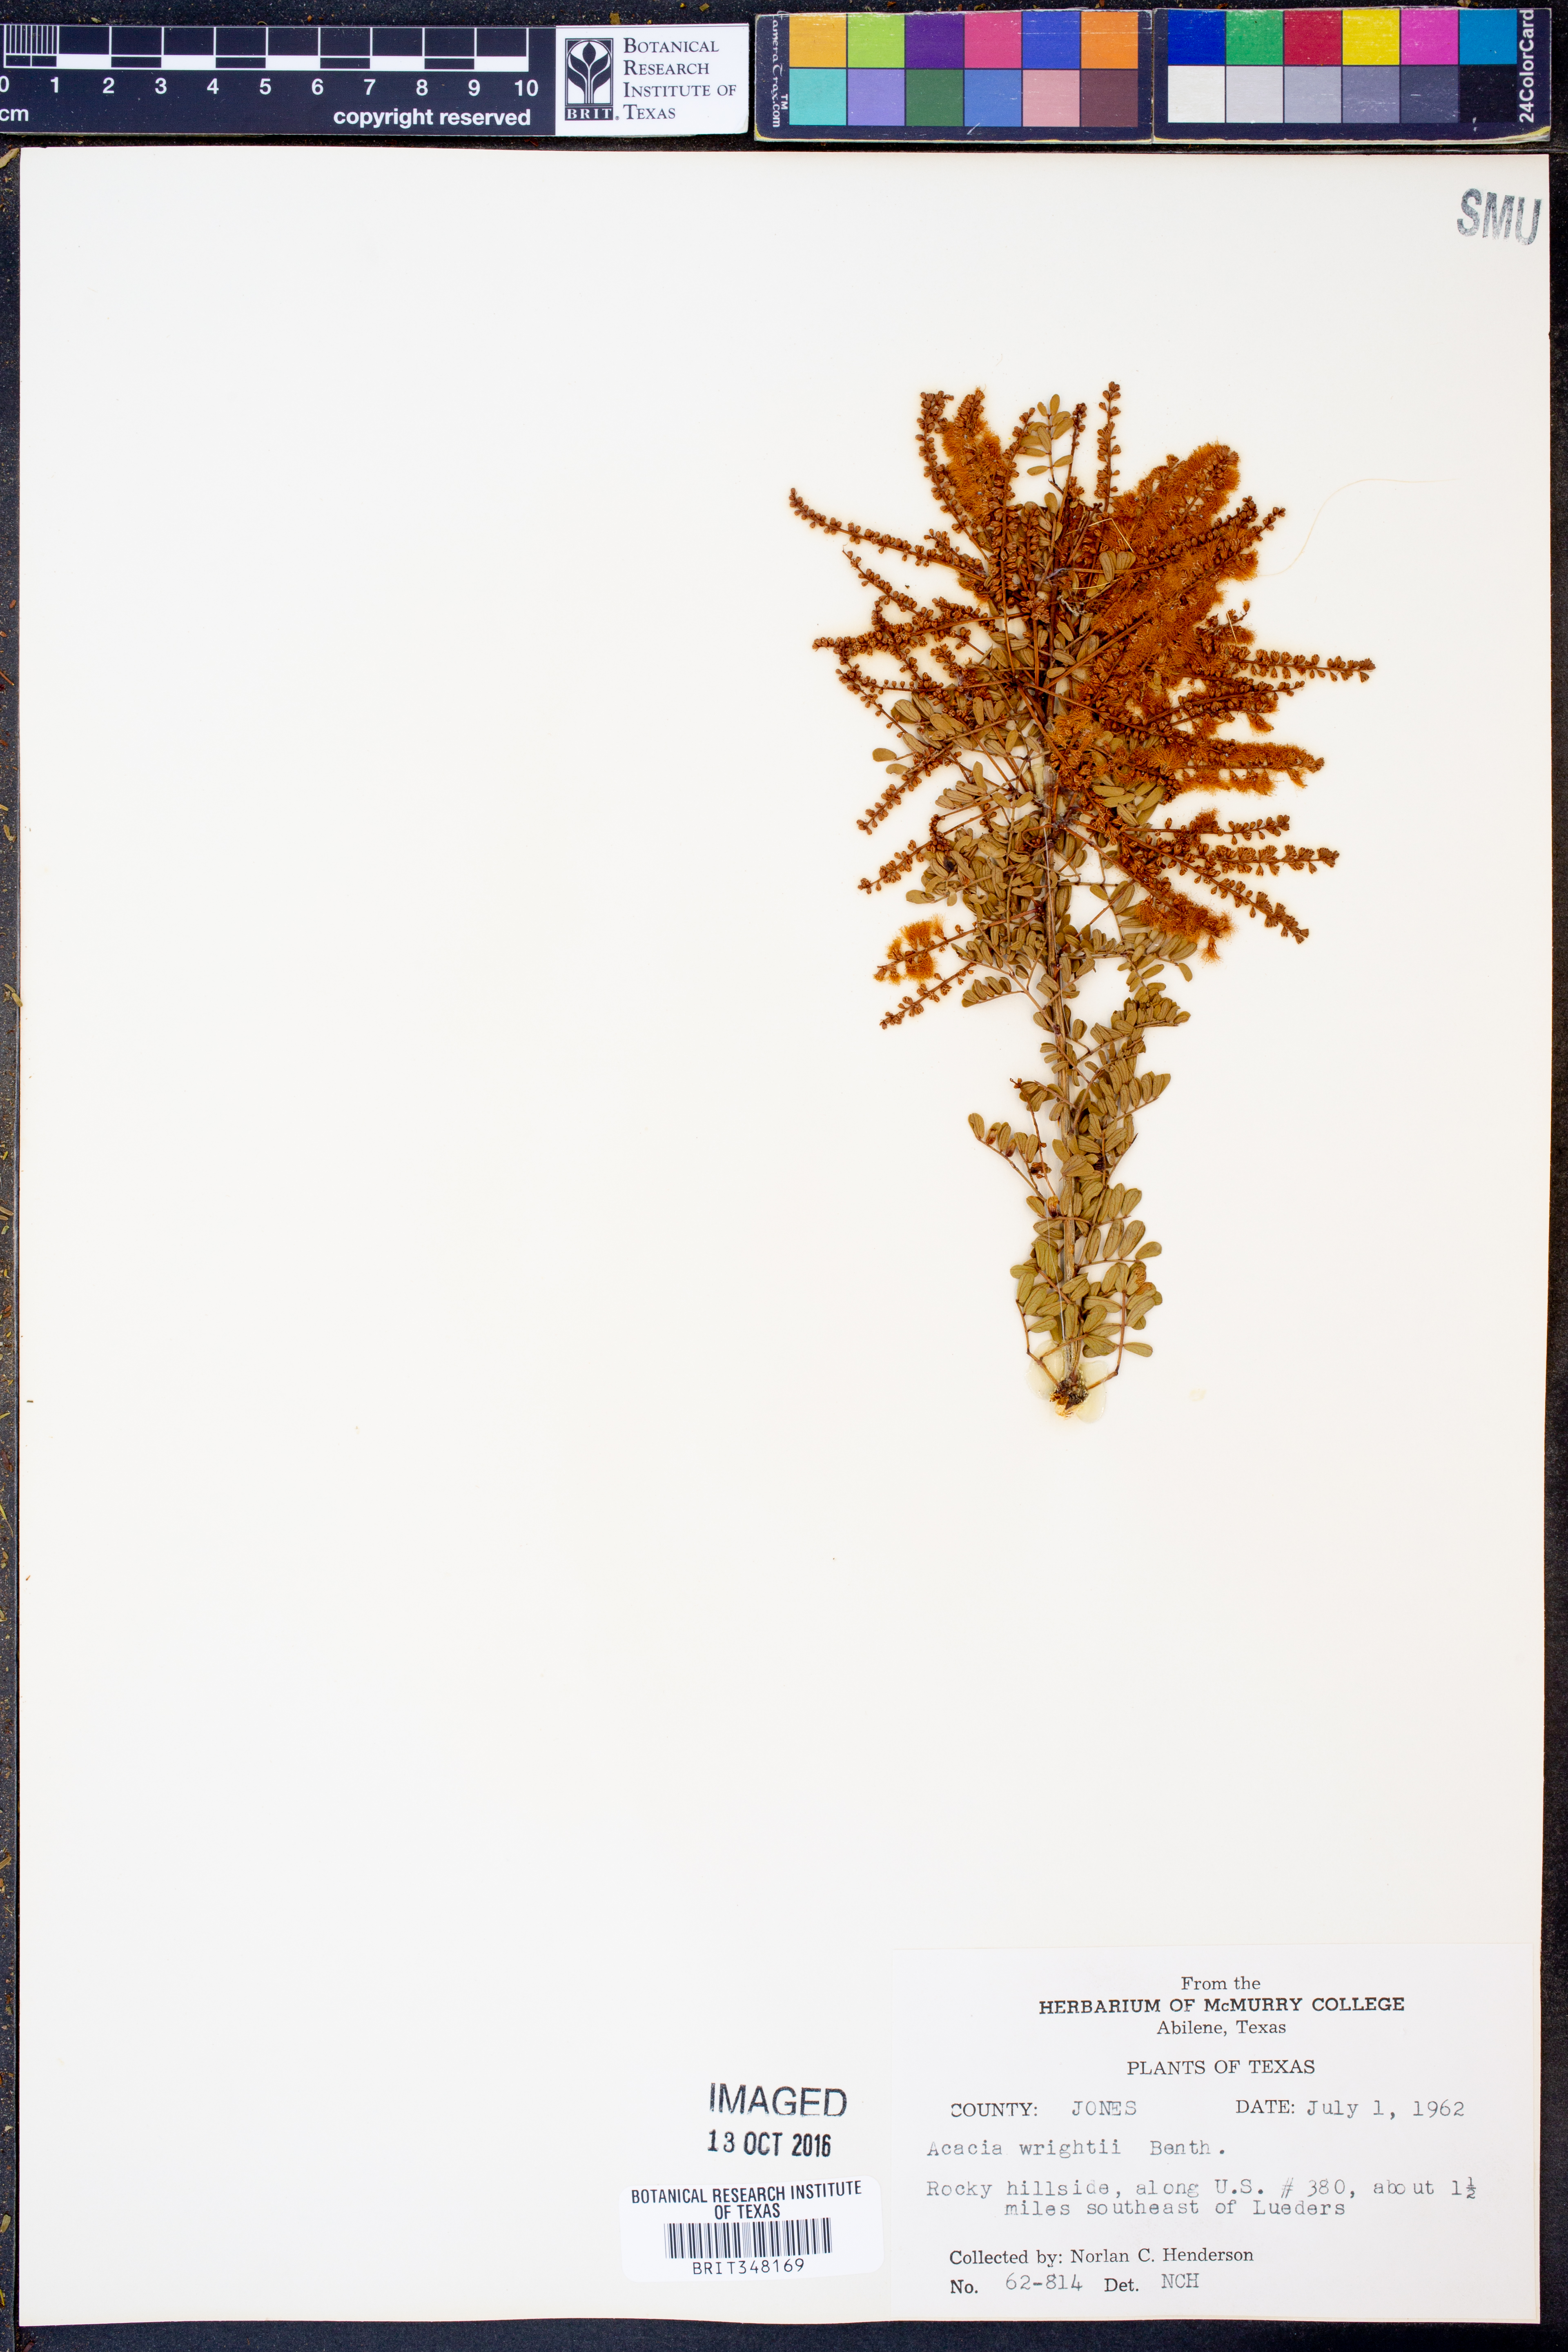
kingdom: Plantae
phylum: Tracheophyta
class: Magnoliopsida
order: Fabales
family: Fabaceae
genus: Senegalia
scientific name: Senegalia wrightii
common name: Texas cat's-claw
